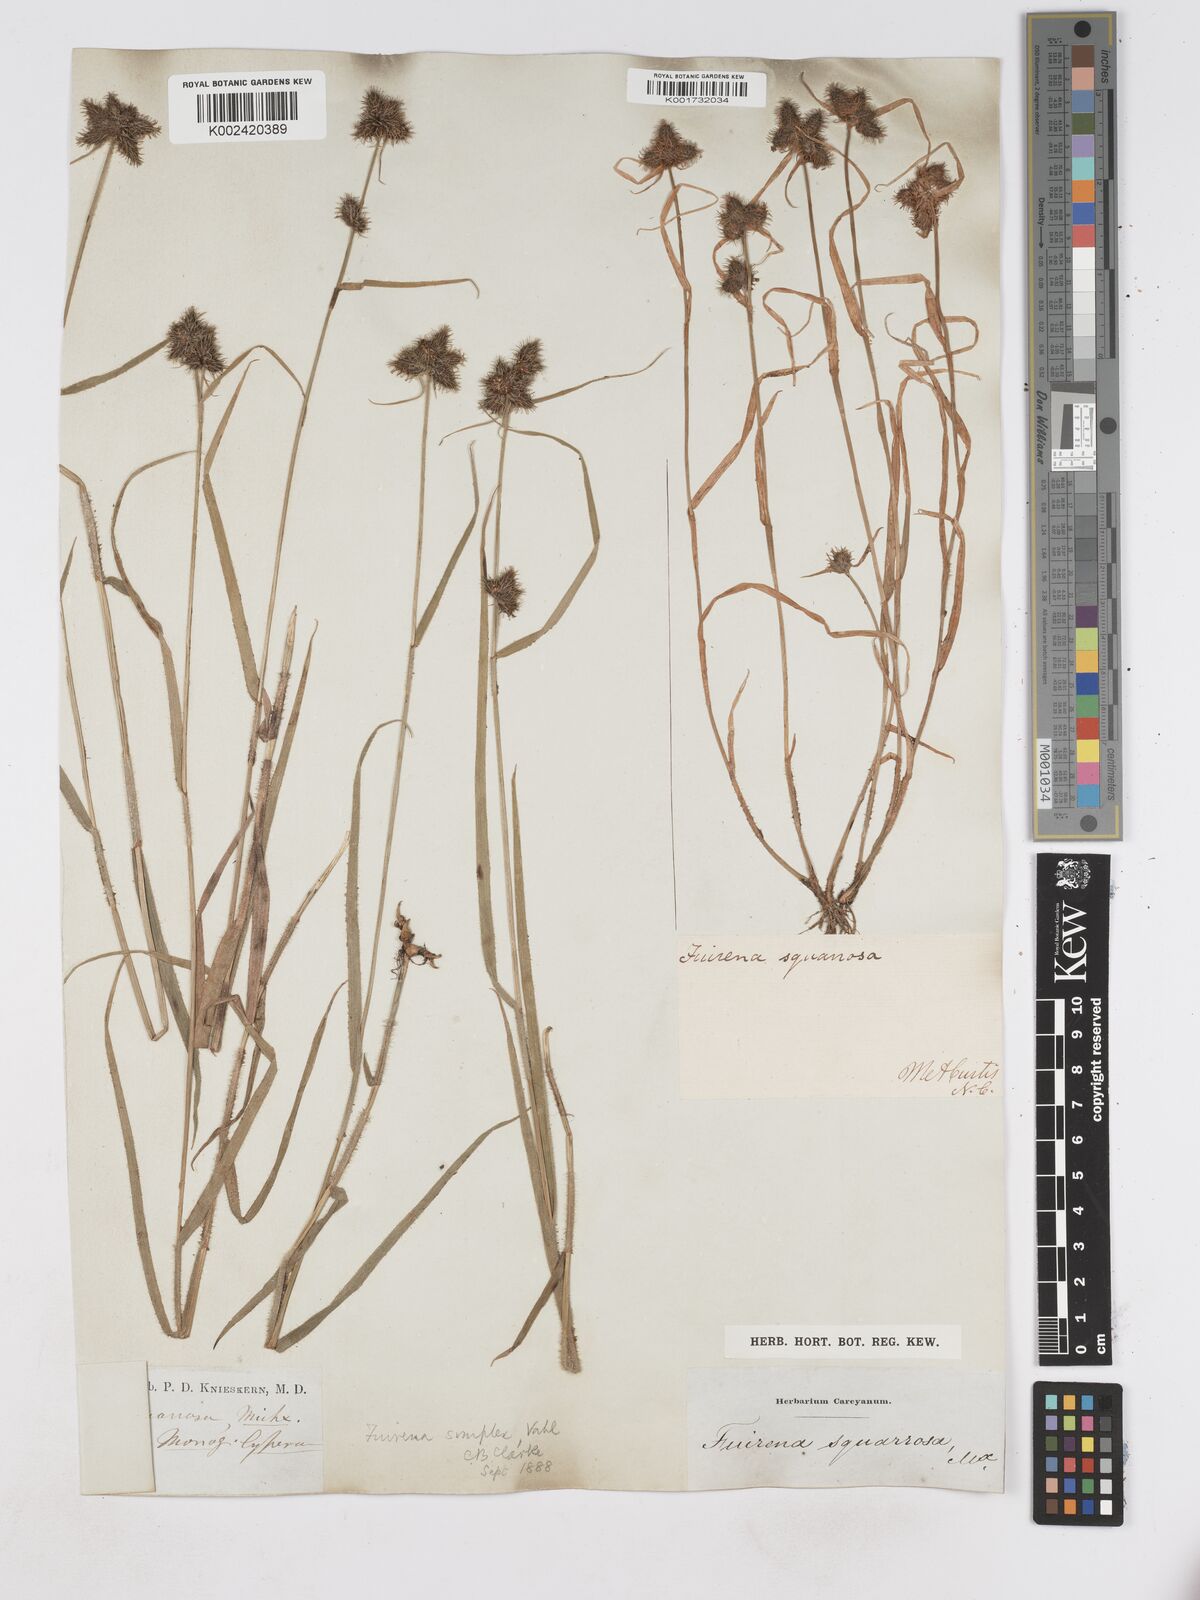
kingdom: Plantae
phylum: Tracheophyta
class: Liliopsida
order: Poales
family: Cyperaceae
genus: Fuirena
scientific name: Fuirena simplex
